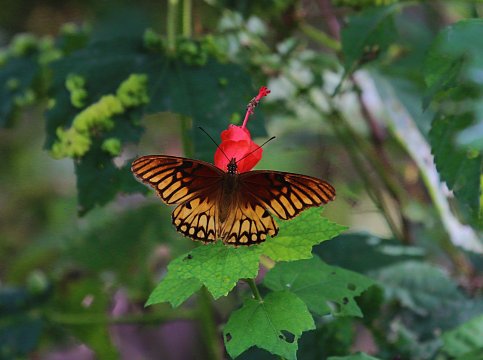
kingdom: Animalia
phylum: Arthropoda
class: Insecta
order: Lepidoptera
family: Nymphalidae
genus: Dione
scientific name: Dione moneta
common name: Mexican Silverspot
